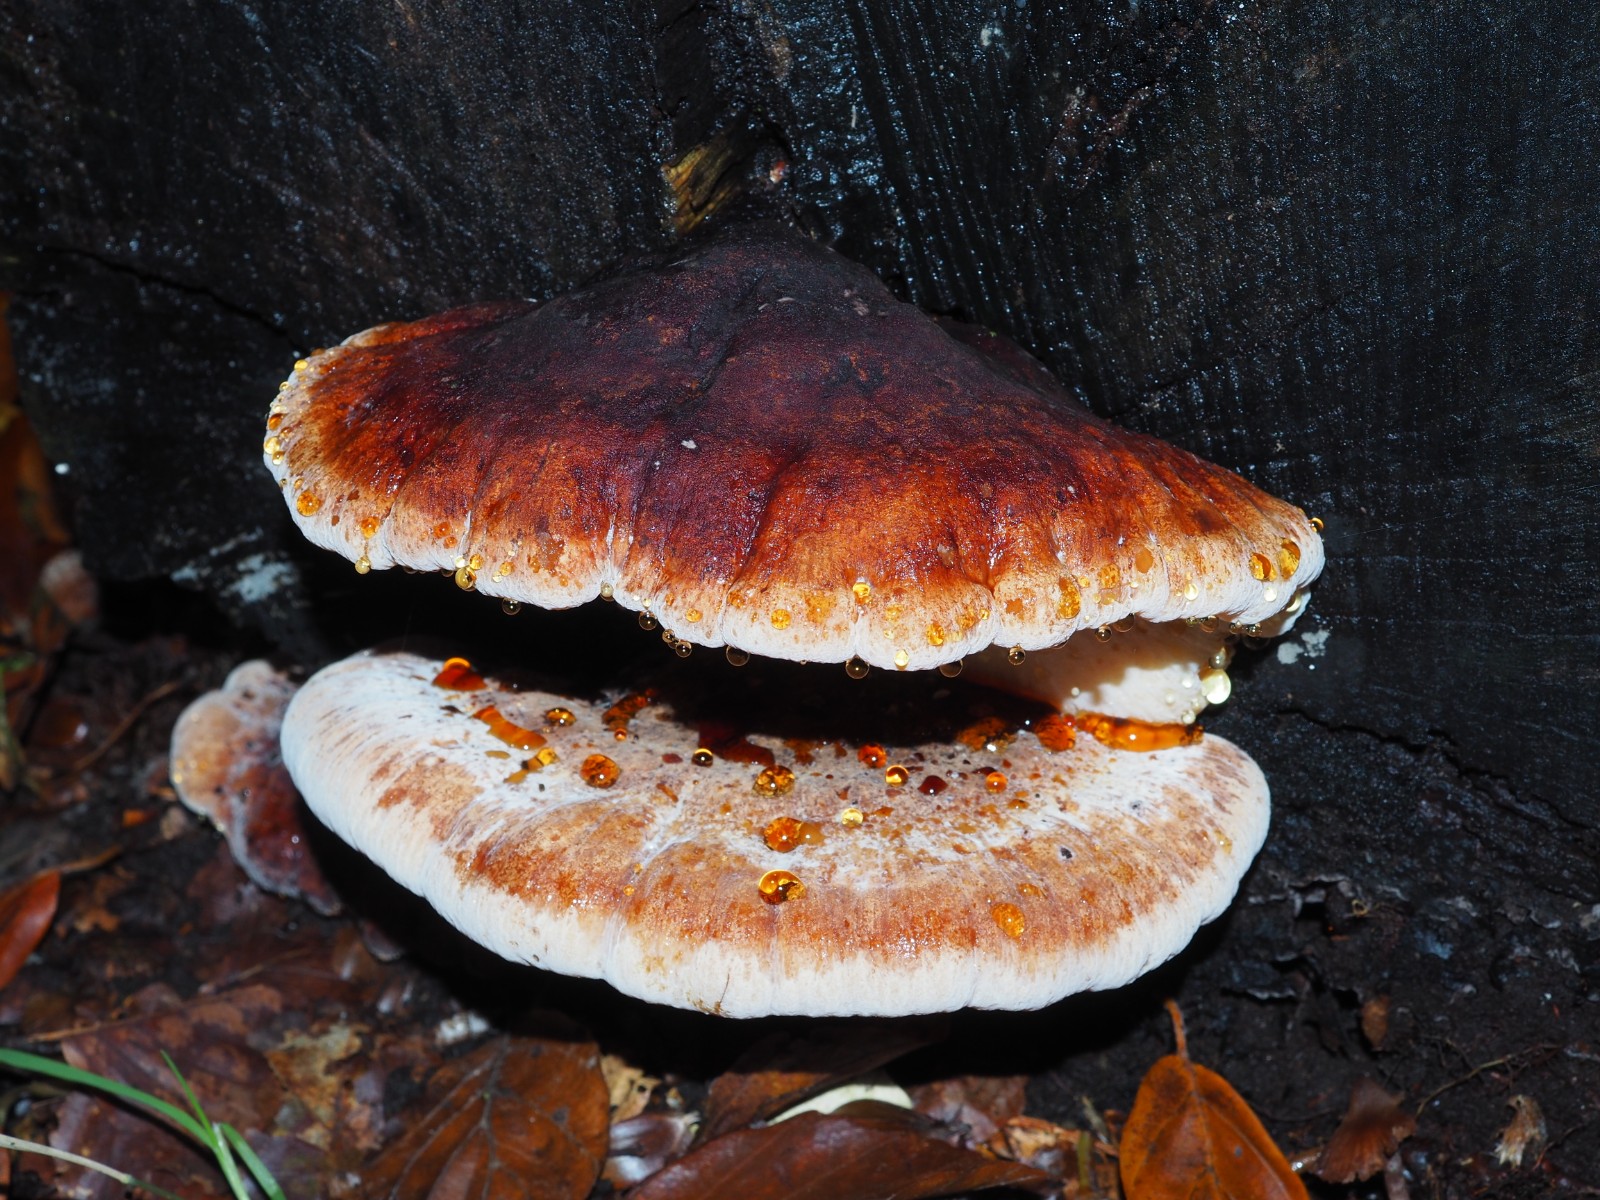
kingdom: Fungi
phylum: Basidiomycota
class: Agaricomycetes
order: Polyporales
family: Ischnodermataceae
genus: Ischnoderma
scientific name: Ischnoderma resinosum
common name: løv-tjæreporesvamp
